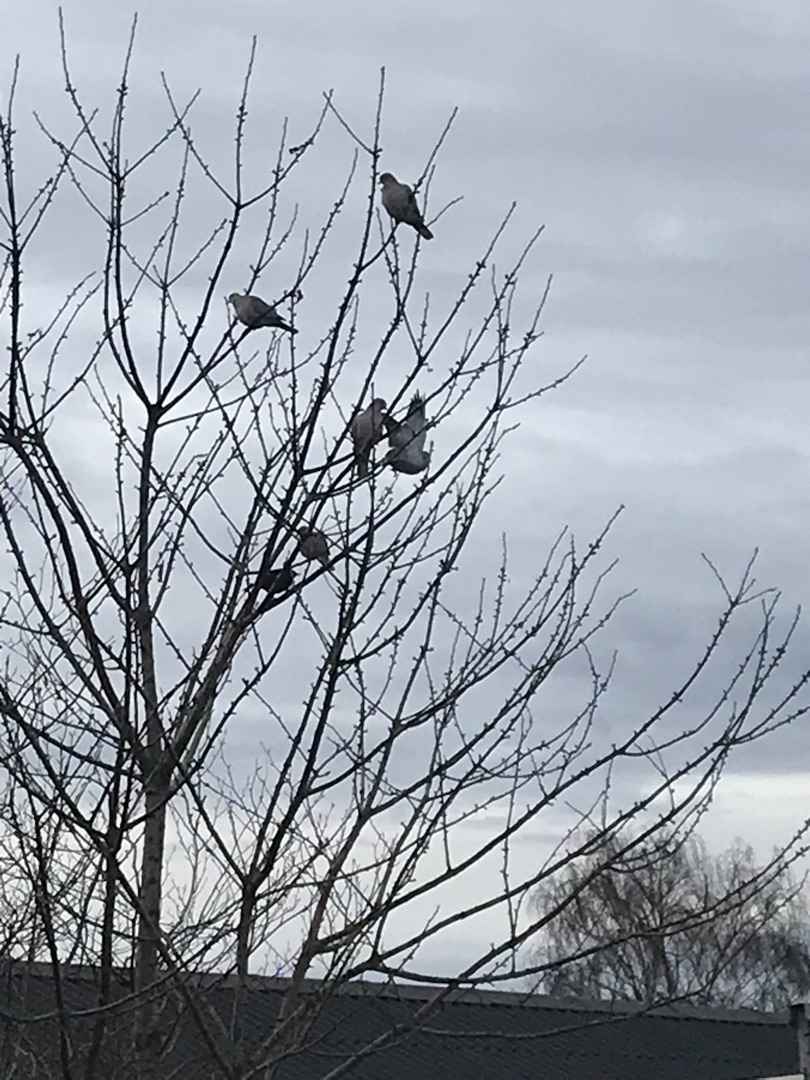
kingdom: Animalia
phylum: Chordata
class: Aves
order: Columbiformes
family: Columbidae
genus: Streptopelia
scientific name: Streptopelia decaocto
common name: Tyrkerdue
